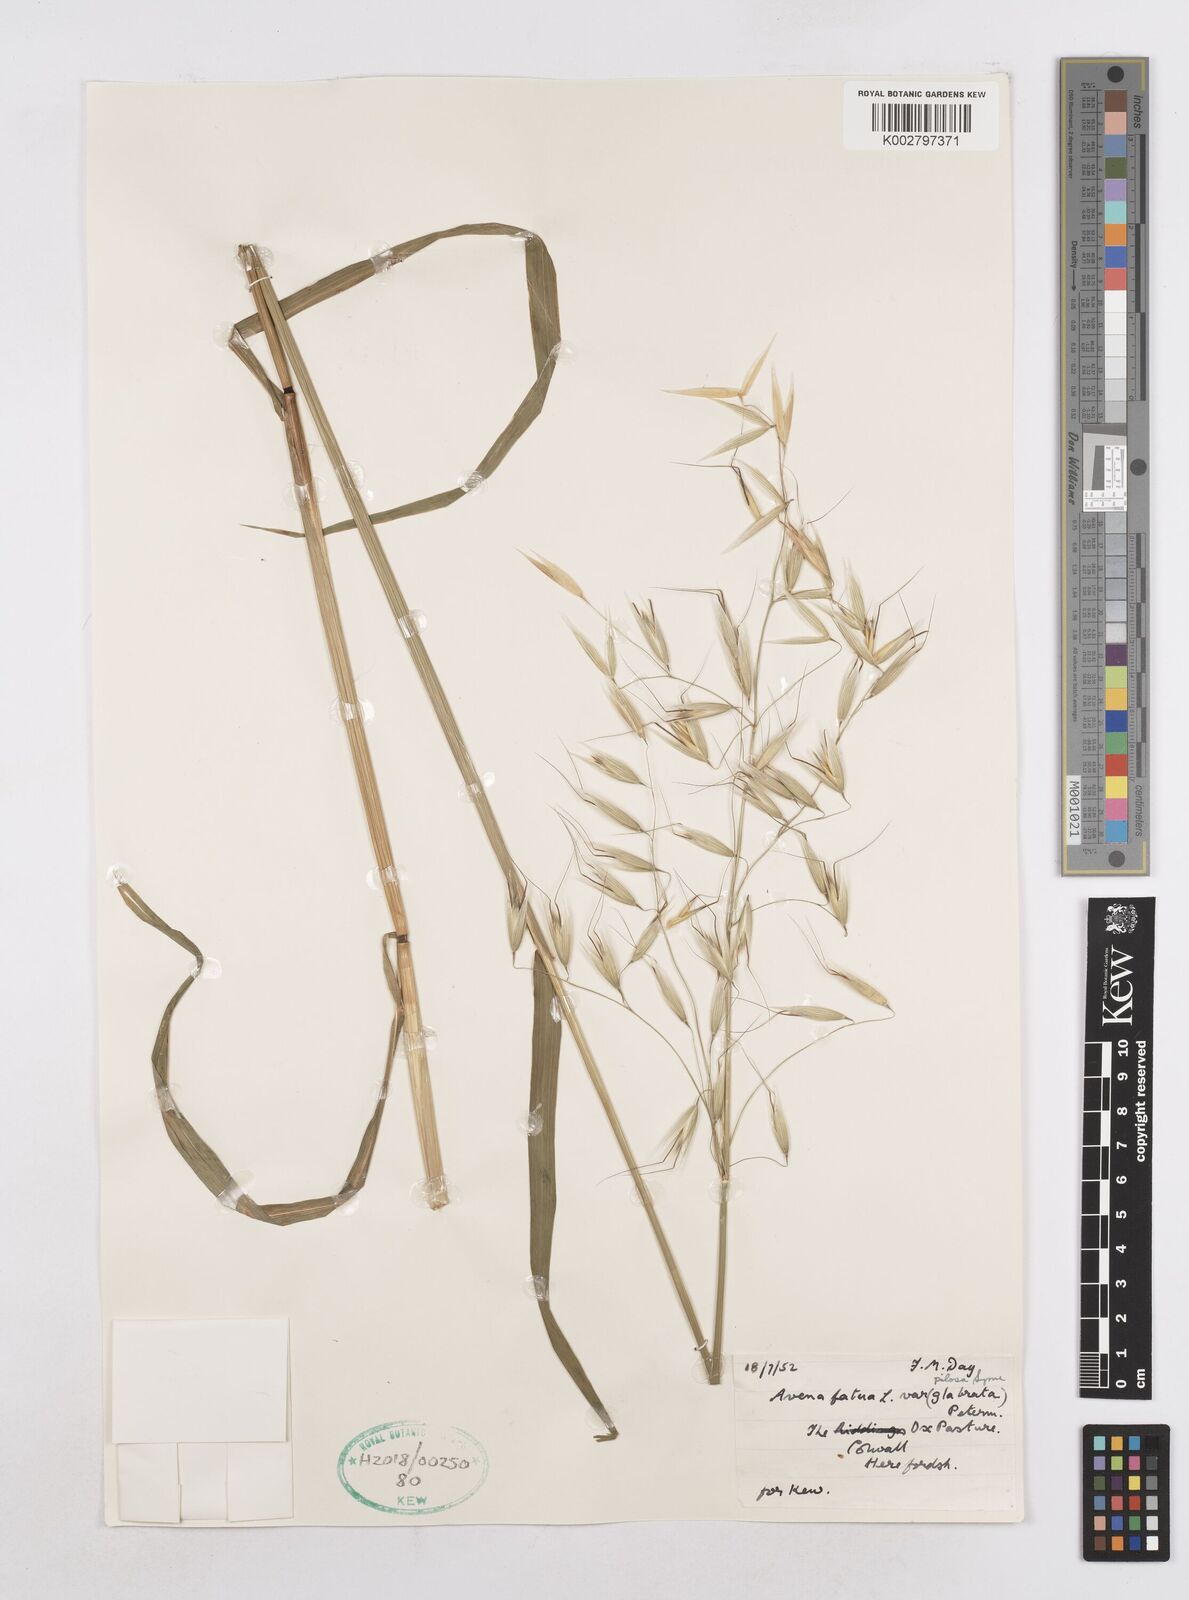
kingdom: Plantae
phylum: Tracheophyta
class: Liliopsida
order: Poales
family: Poaceae
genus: Avena
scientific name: Avena fatua
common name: Wild oat
